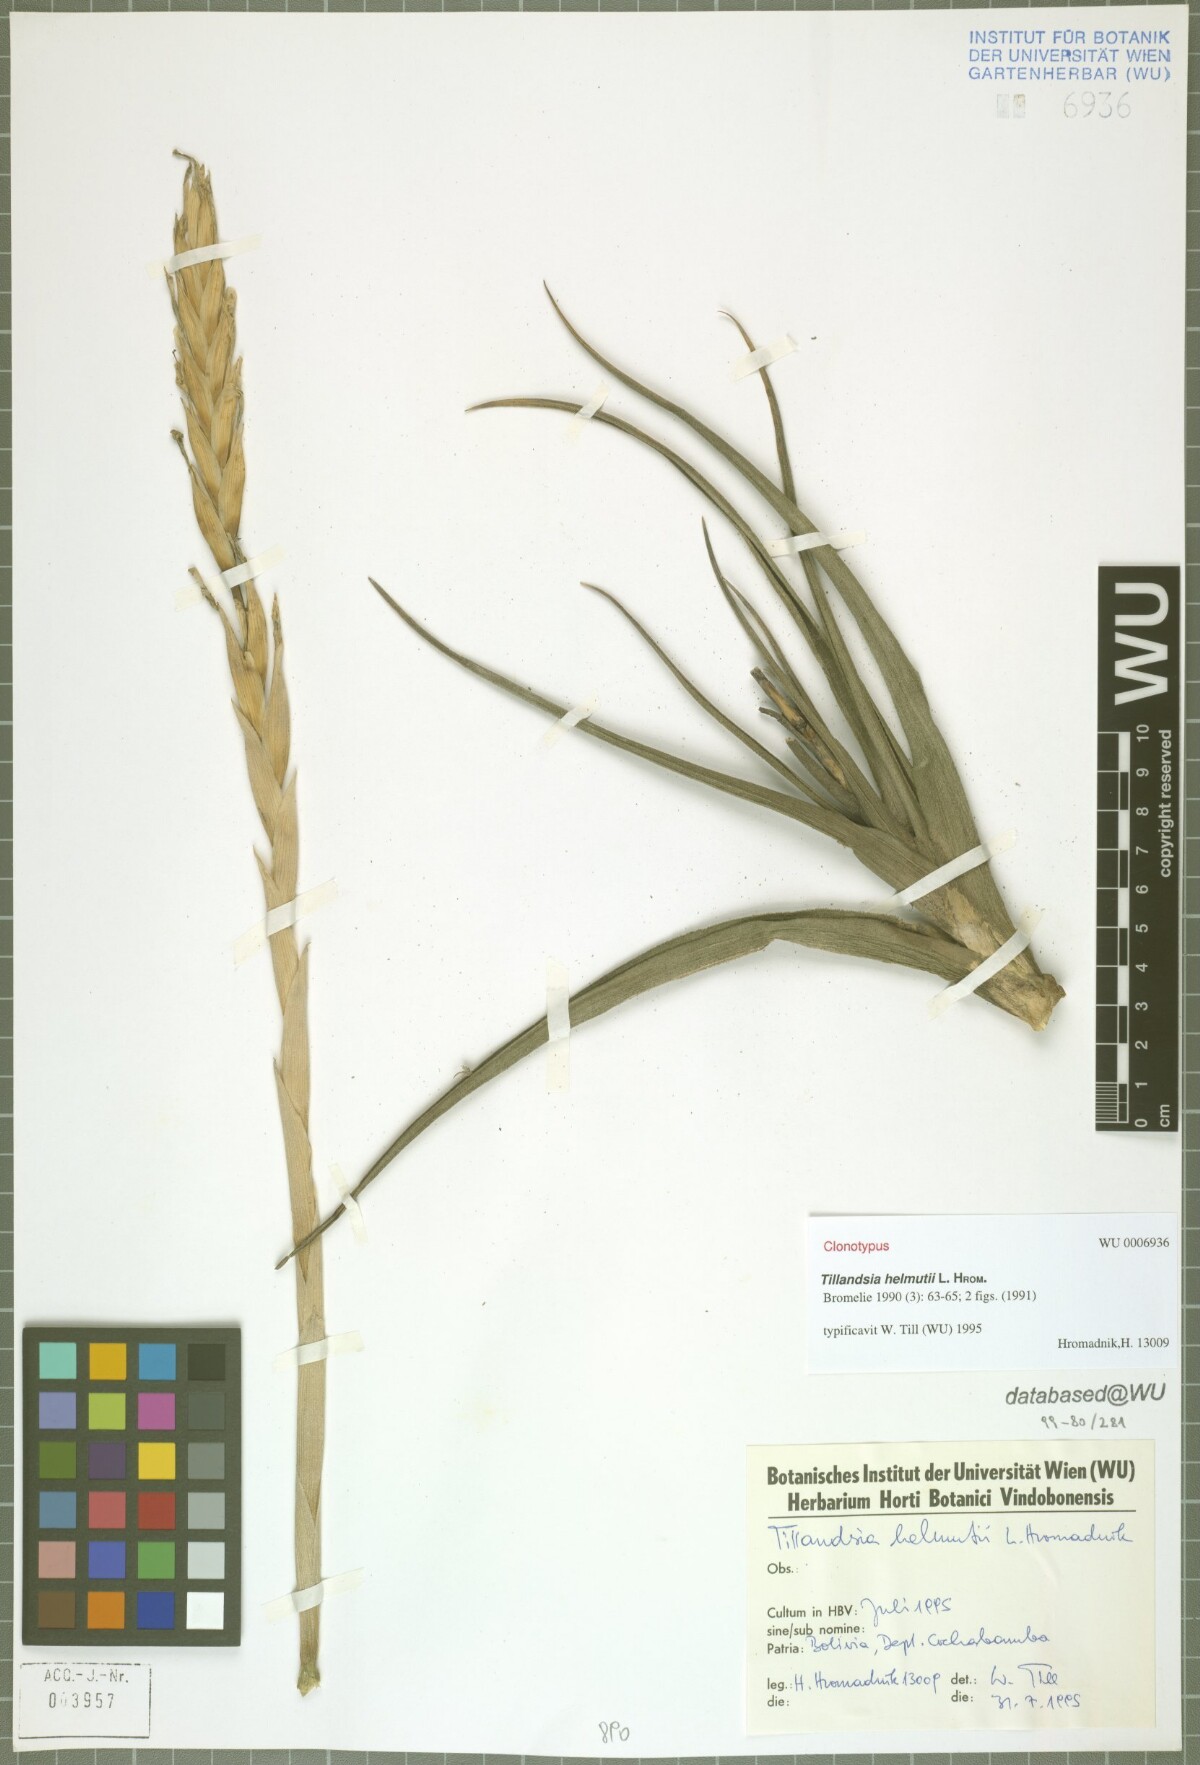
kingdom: Plantae
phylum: Tracheophyta
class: Liliopsida
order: Poales
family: Bromeliaceae
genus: Tillandsia
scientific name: Tillandsia helmutii
